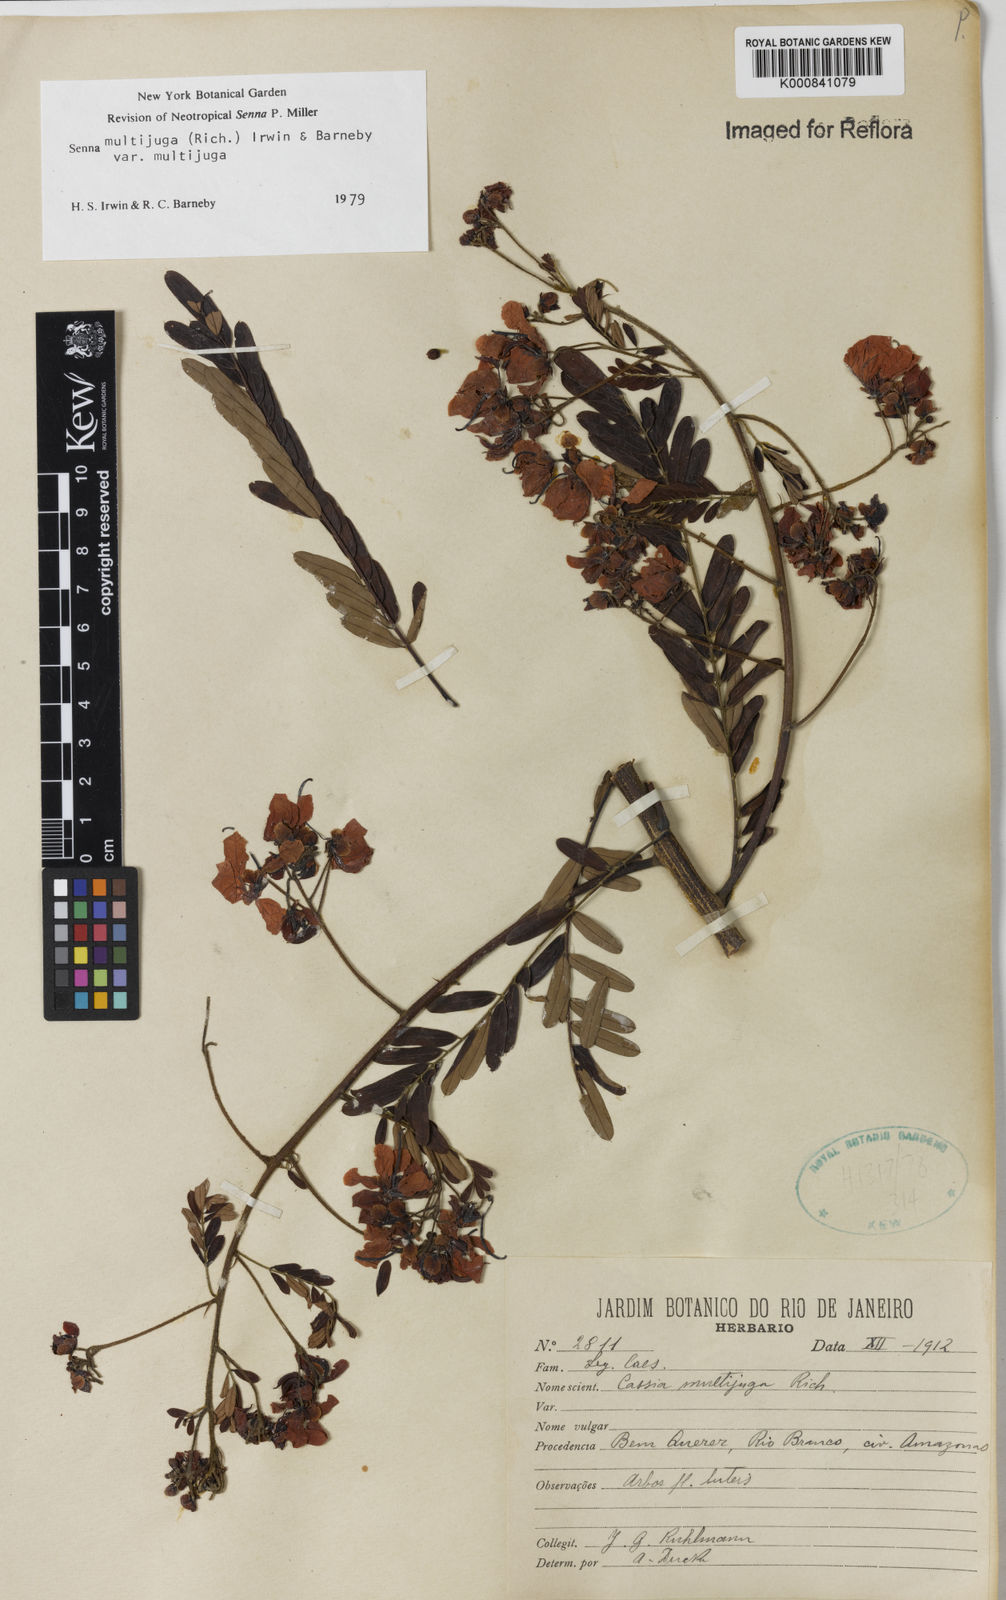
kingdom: Plantae
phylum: Tracheophyta
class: Magnoliopsida
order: Fabales
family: Fabaceae
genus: Senna
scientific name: Senna multijuga
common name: False sicklepod
